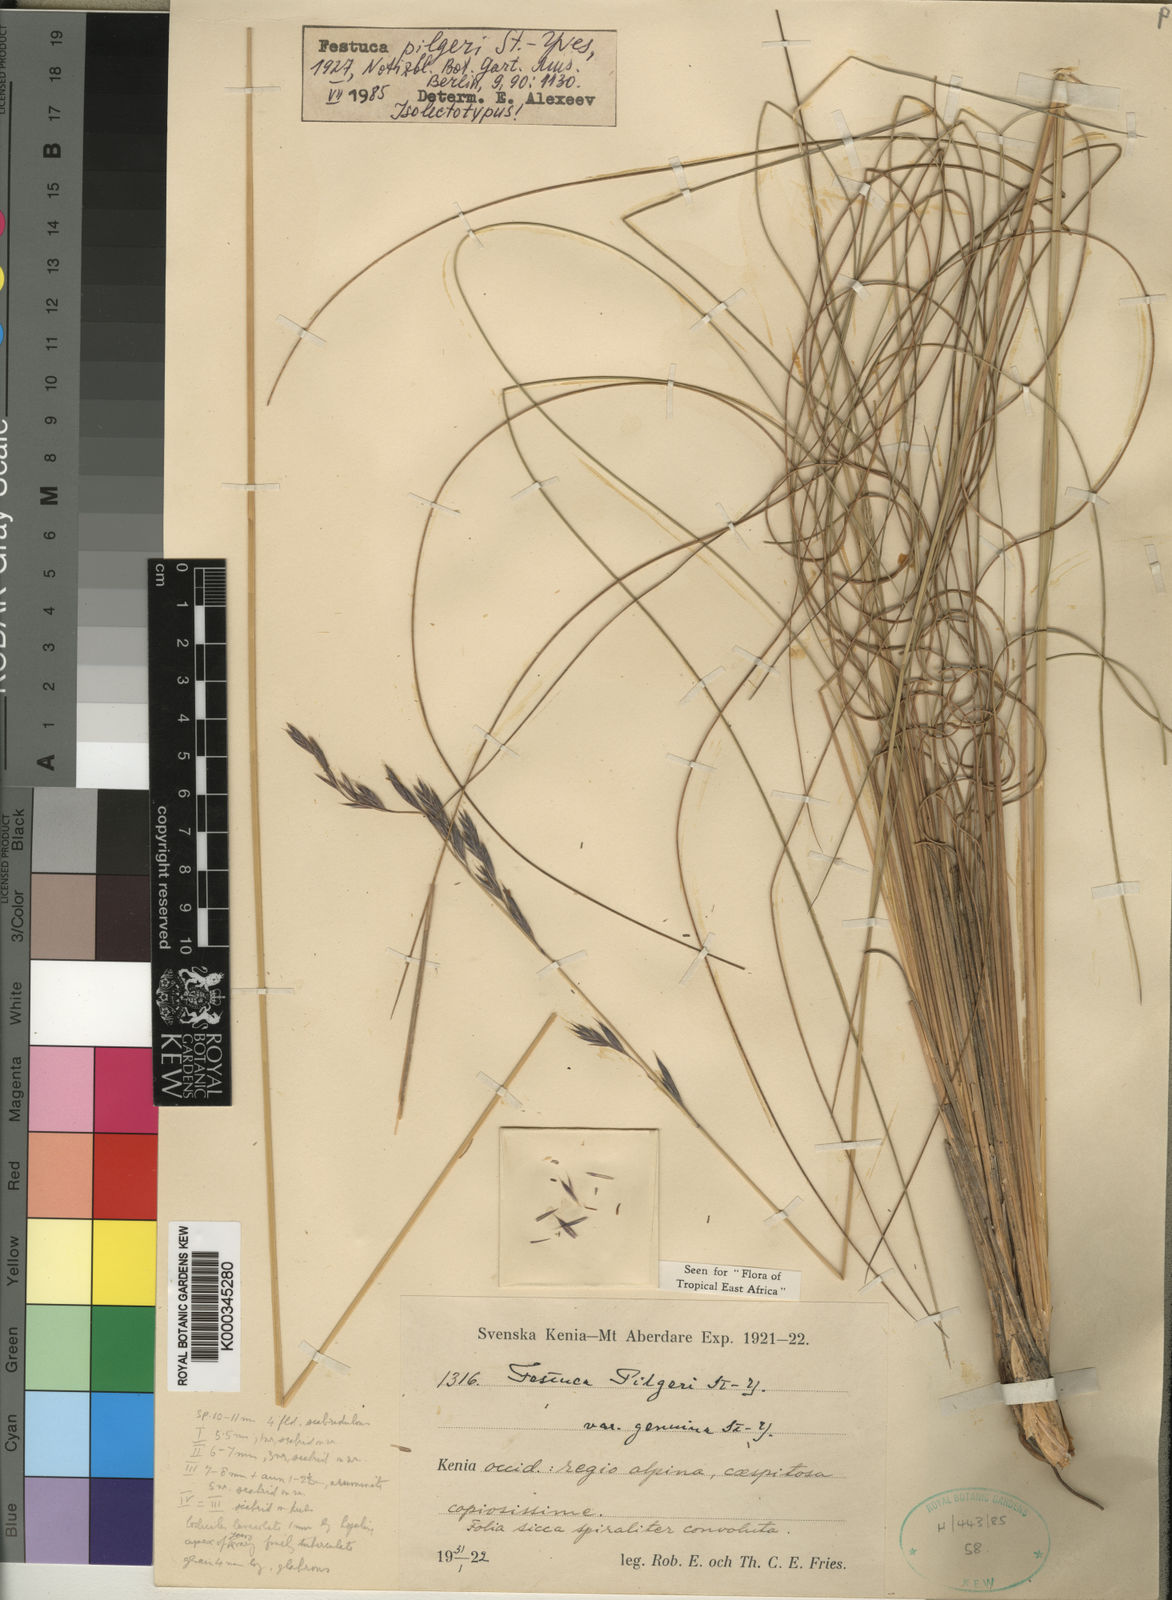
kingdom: Plantae
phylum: Tracheophyta
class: Liliopsida
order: Poales
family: Poaceae
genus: Festuca
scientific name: Festuca pilgeri
